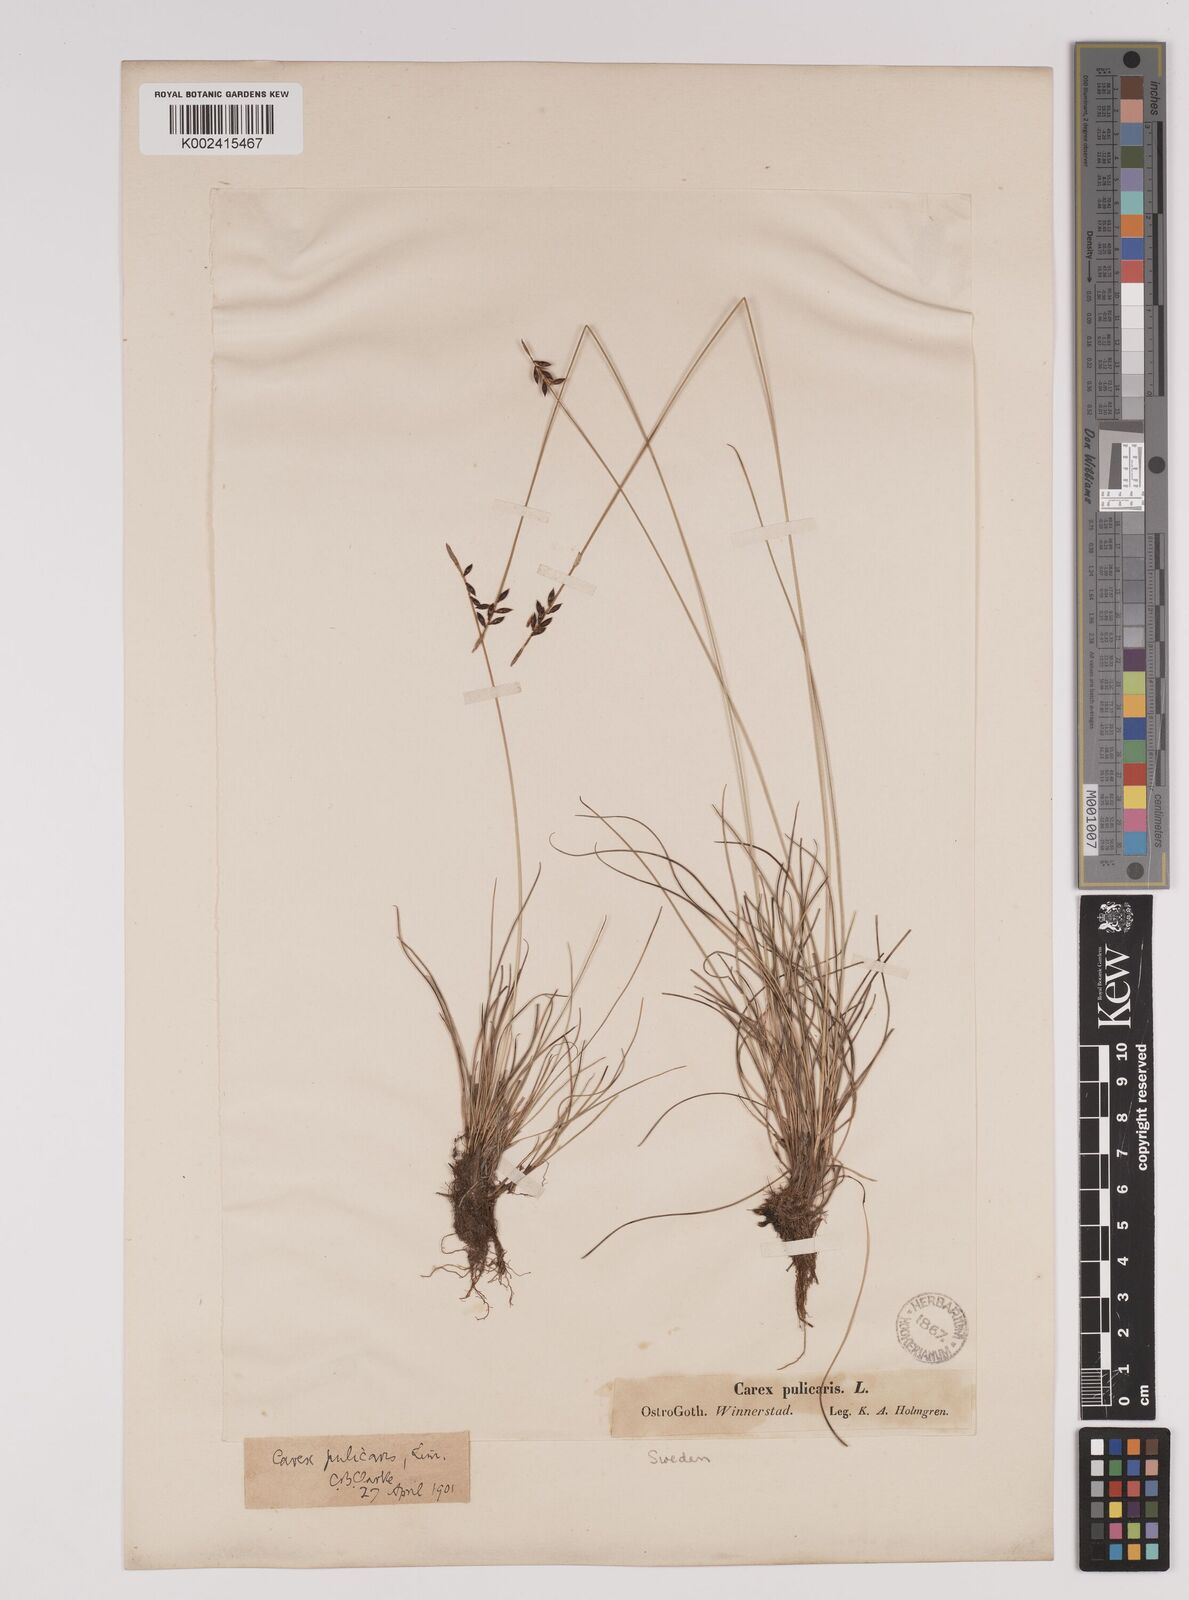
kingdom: Plantae
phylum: Tracheophyta
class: Liliopsida
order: Poales
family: Cyperaceae
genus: Carex
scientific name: Carex pulicaris
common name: Flea sedge
